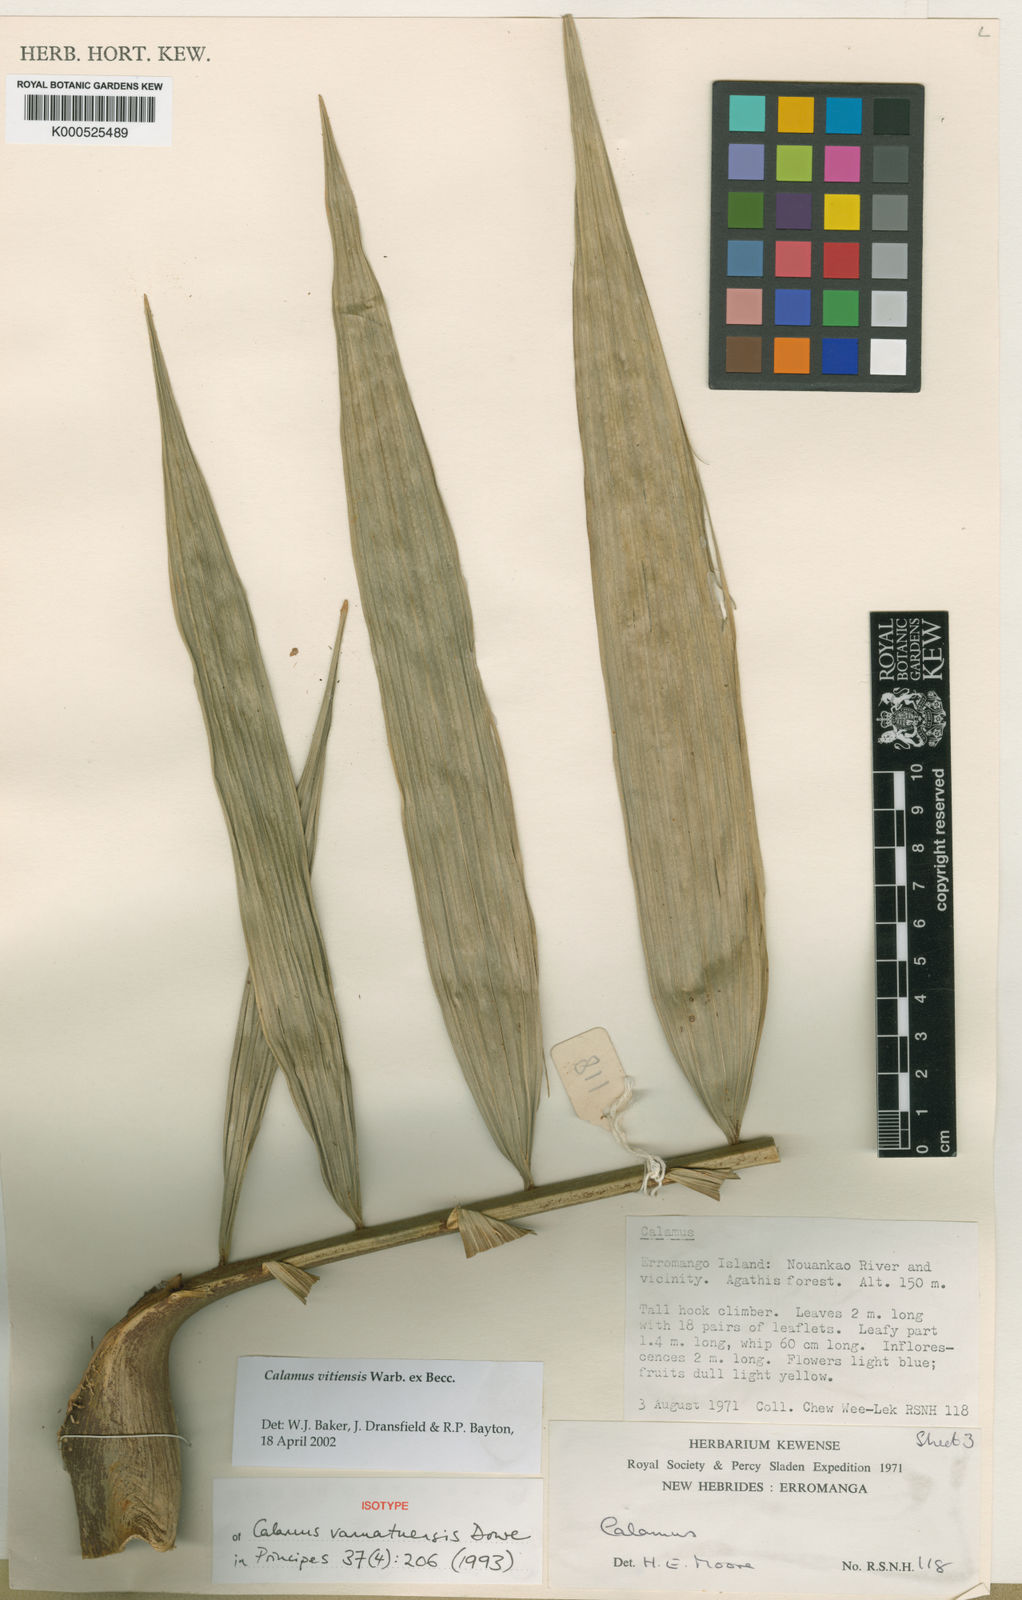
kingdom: Plantae
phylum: Tracheophyta
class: Liliopsida
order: Arecales
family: Arecaceae
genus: Calamus
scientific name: Calamus vitiensis
